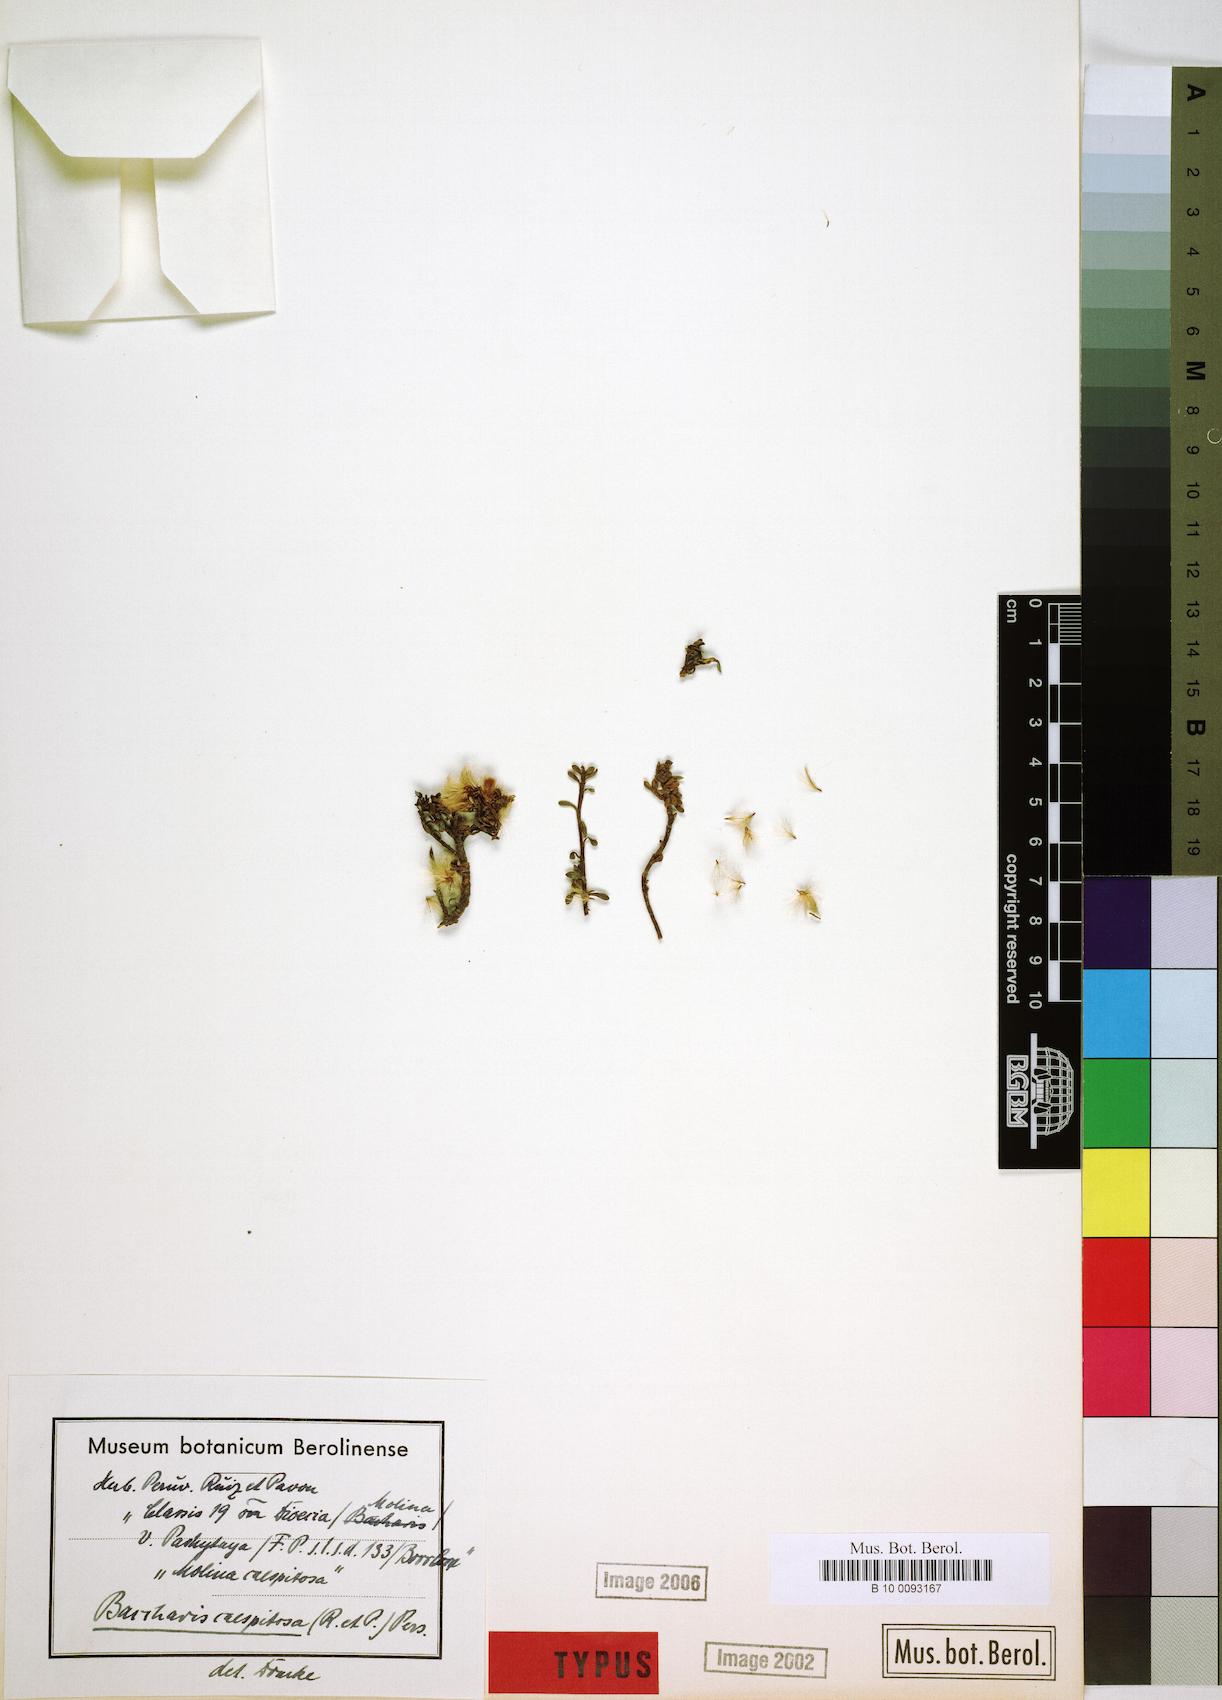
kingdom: Plantae
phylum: Tracheophyta
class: Magnoliopsida
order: Asterales
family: Asteraceae
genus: Baccharis
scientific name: Baccharis caespitosa
